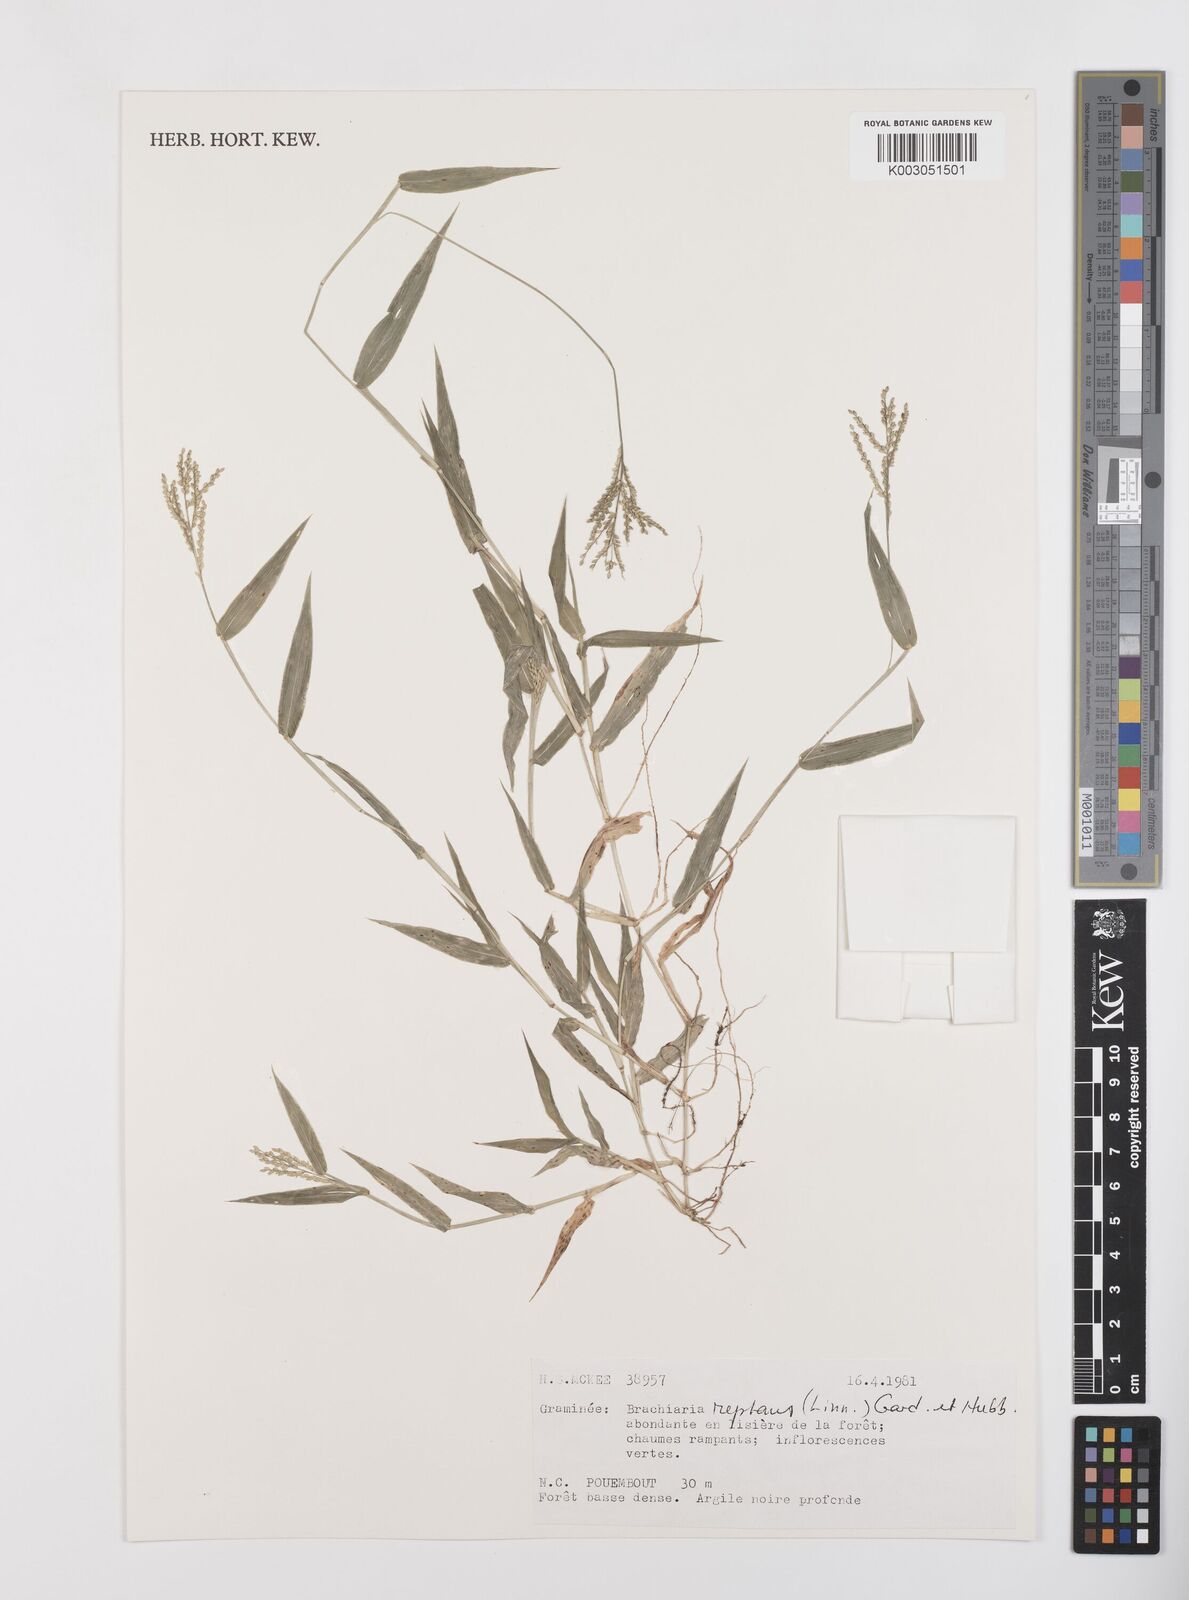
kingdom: Plantae
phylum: Tracheophyta
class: Liliopsida
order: Poales
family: Poaceae
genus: Urochloa
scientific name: Urochloa reptans
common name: Sprawling signalgrass
